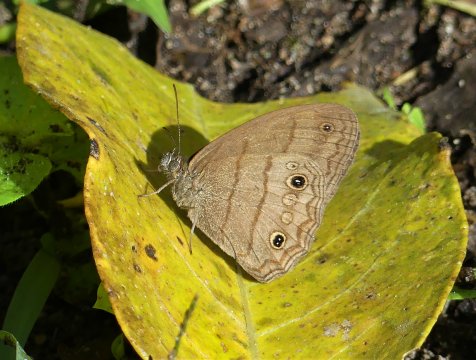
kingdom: Animalia
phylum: Arthropoda
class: Insecta
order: Lepidoptera
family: Nymphalidae
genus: Euptychia
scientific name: Euptychia terrestris
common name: Cryptic Satyr
